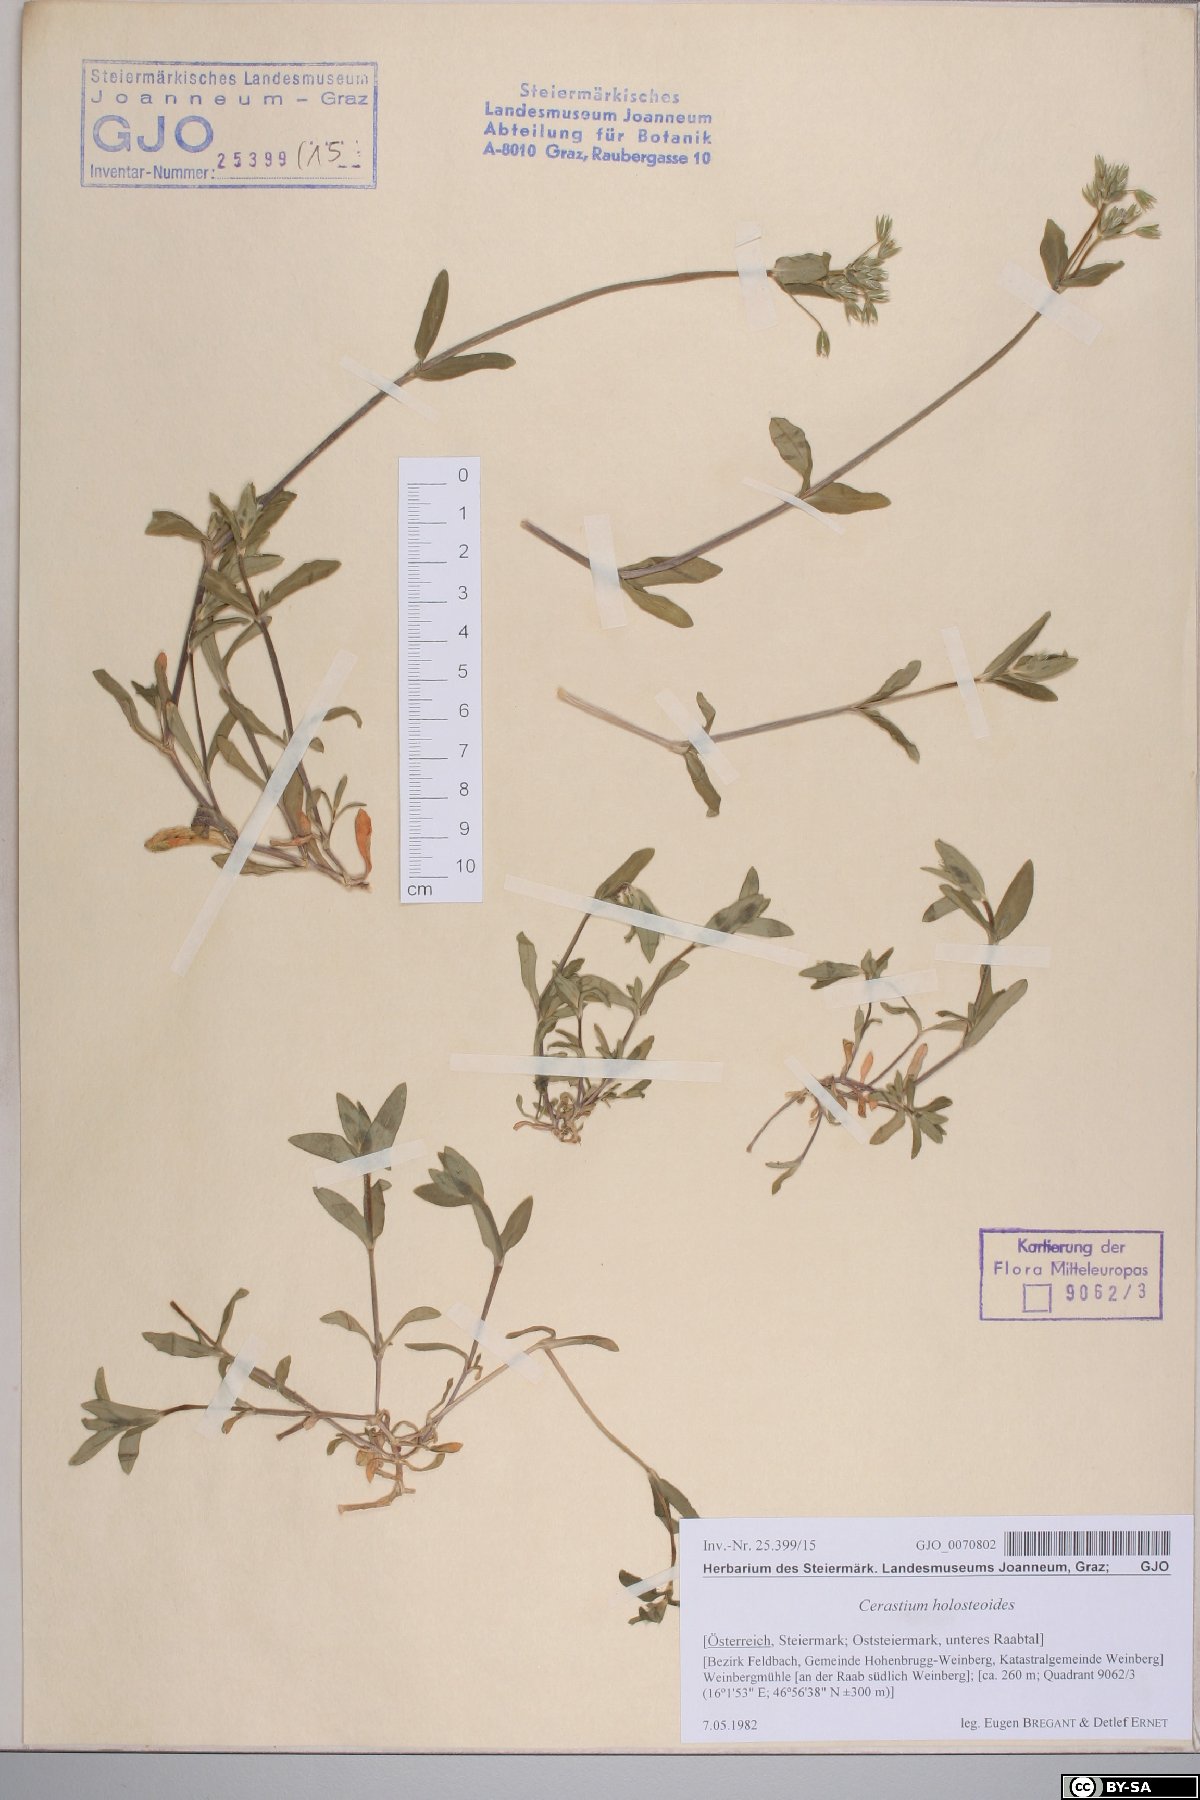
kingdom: Plantae
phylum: Tracheophyta
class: Magnoliopsida
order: Caryophyllales
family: Caryophyllaceae
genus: Cerastium
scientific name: Cerastium holosteoides
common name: Big chickweed
